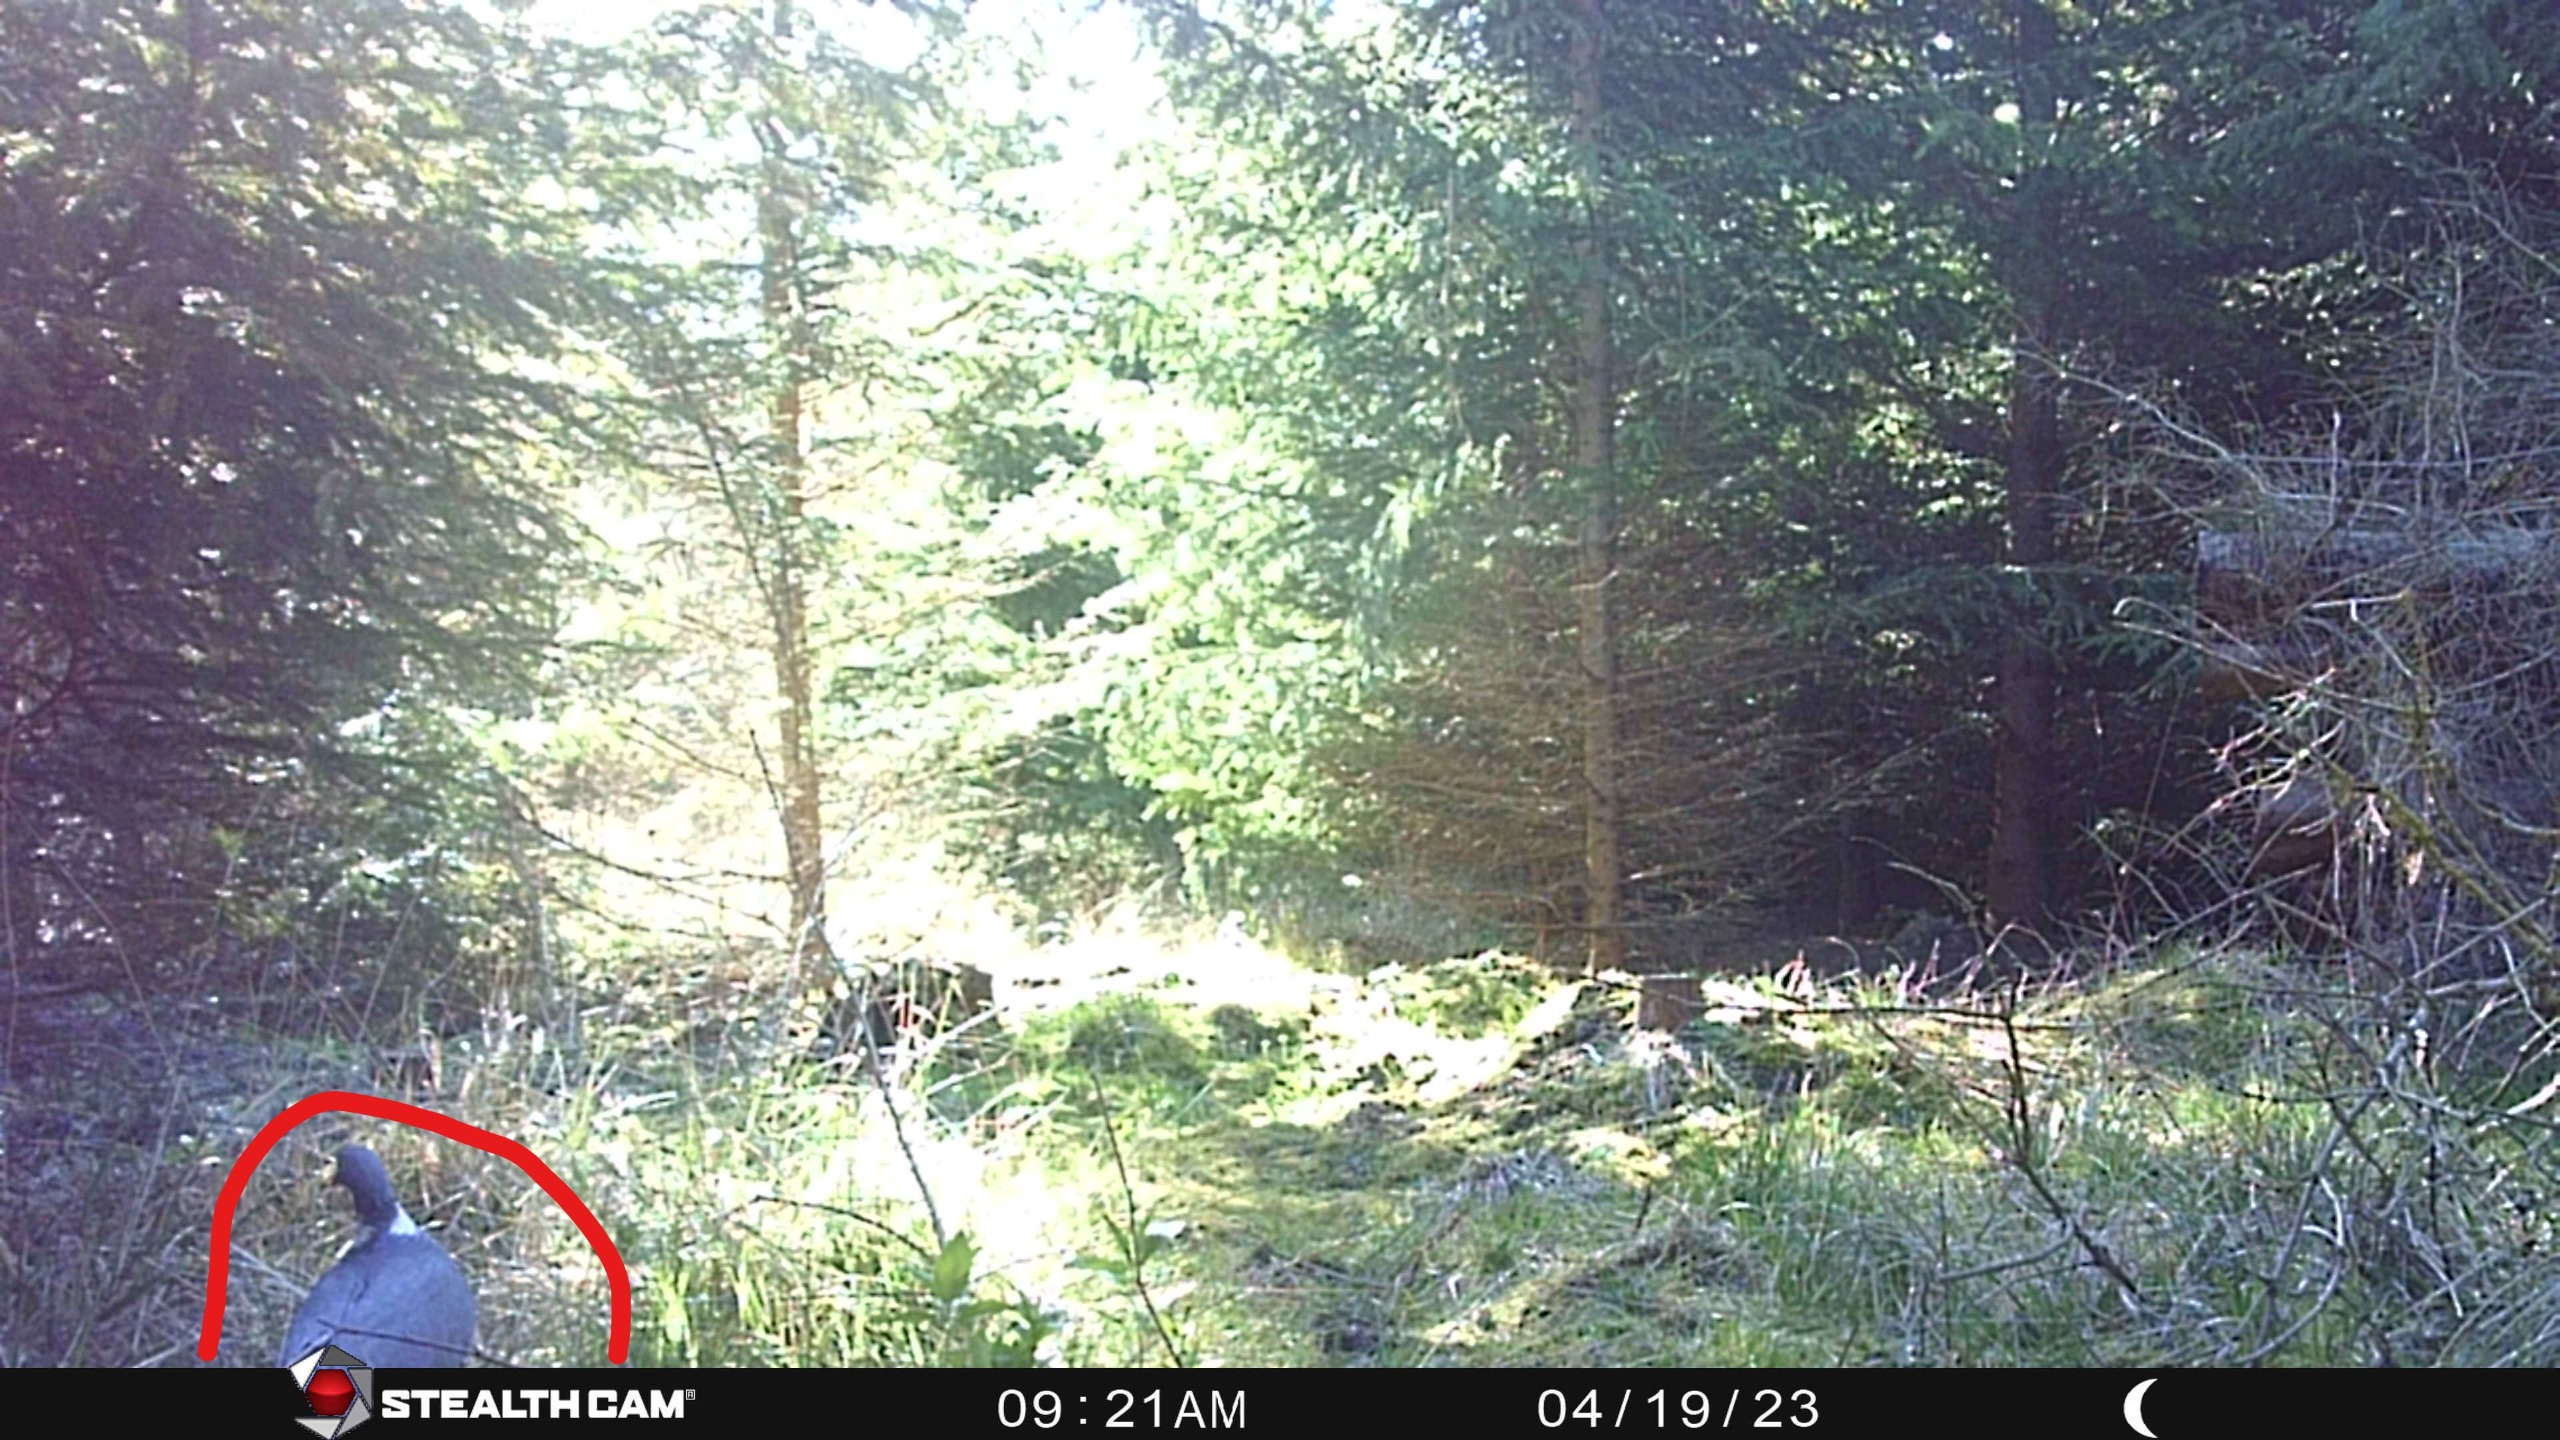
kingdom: Animalia
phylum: Chordata
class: Aves
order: Columbiformes
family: Columbidae
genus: Columba
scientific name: Columba palumbus
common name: Ringdue
